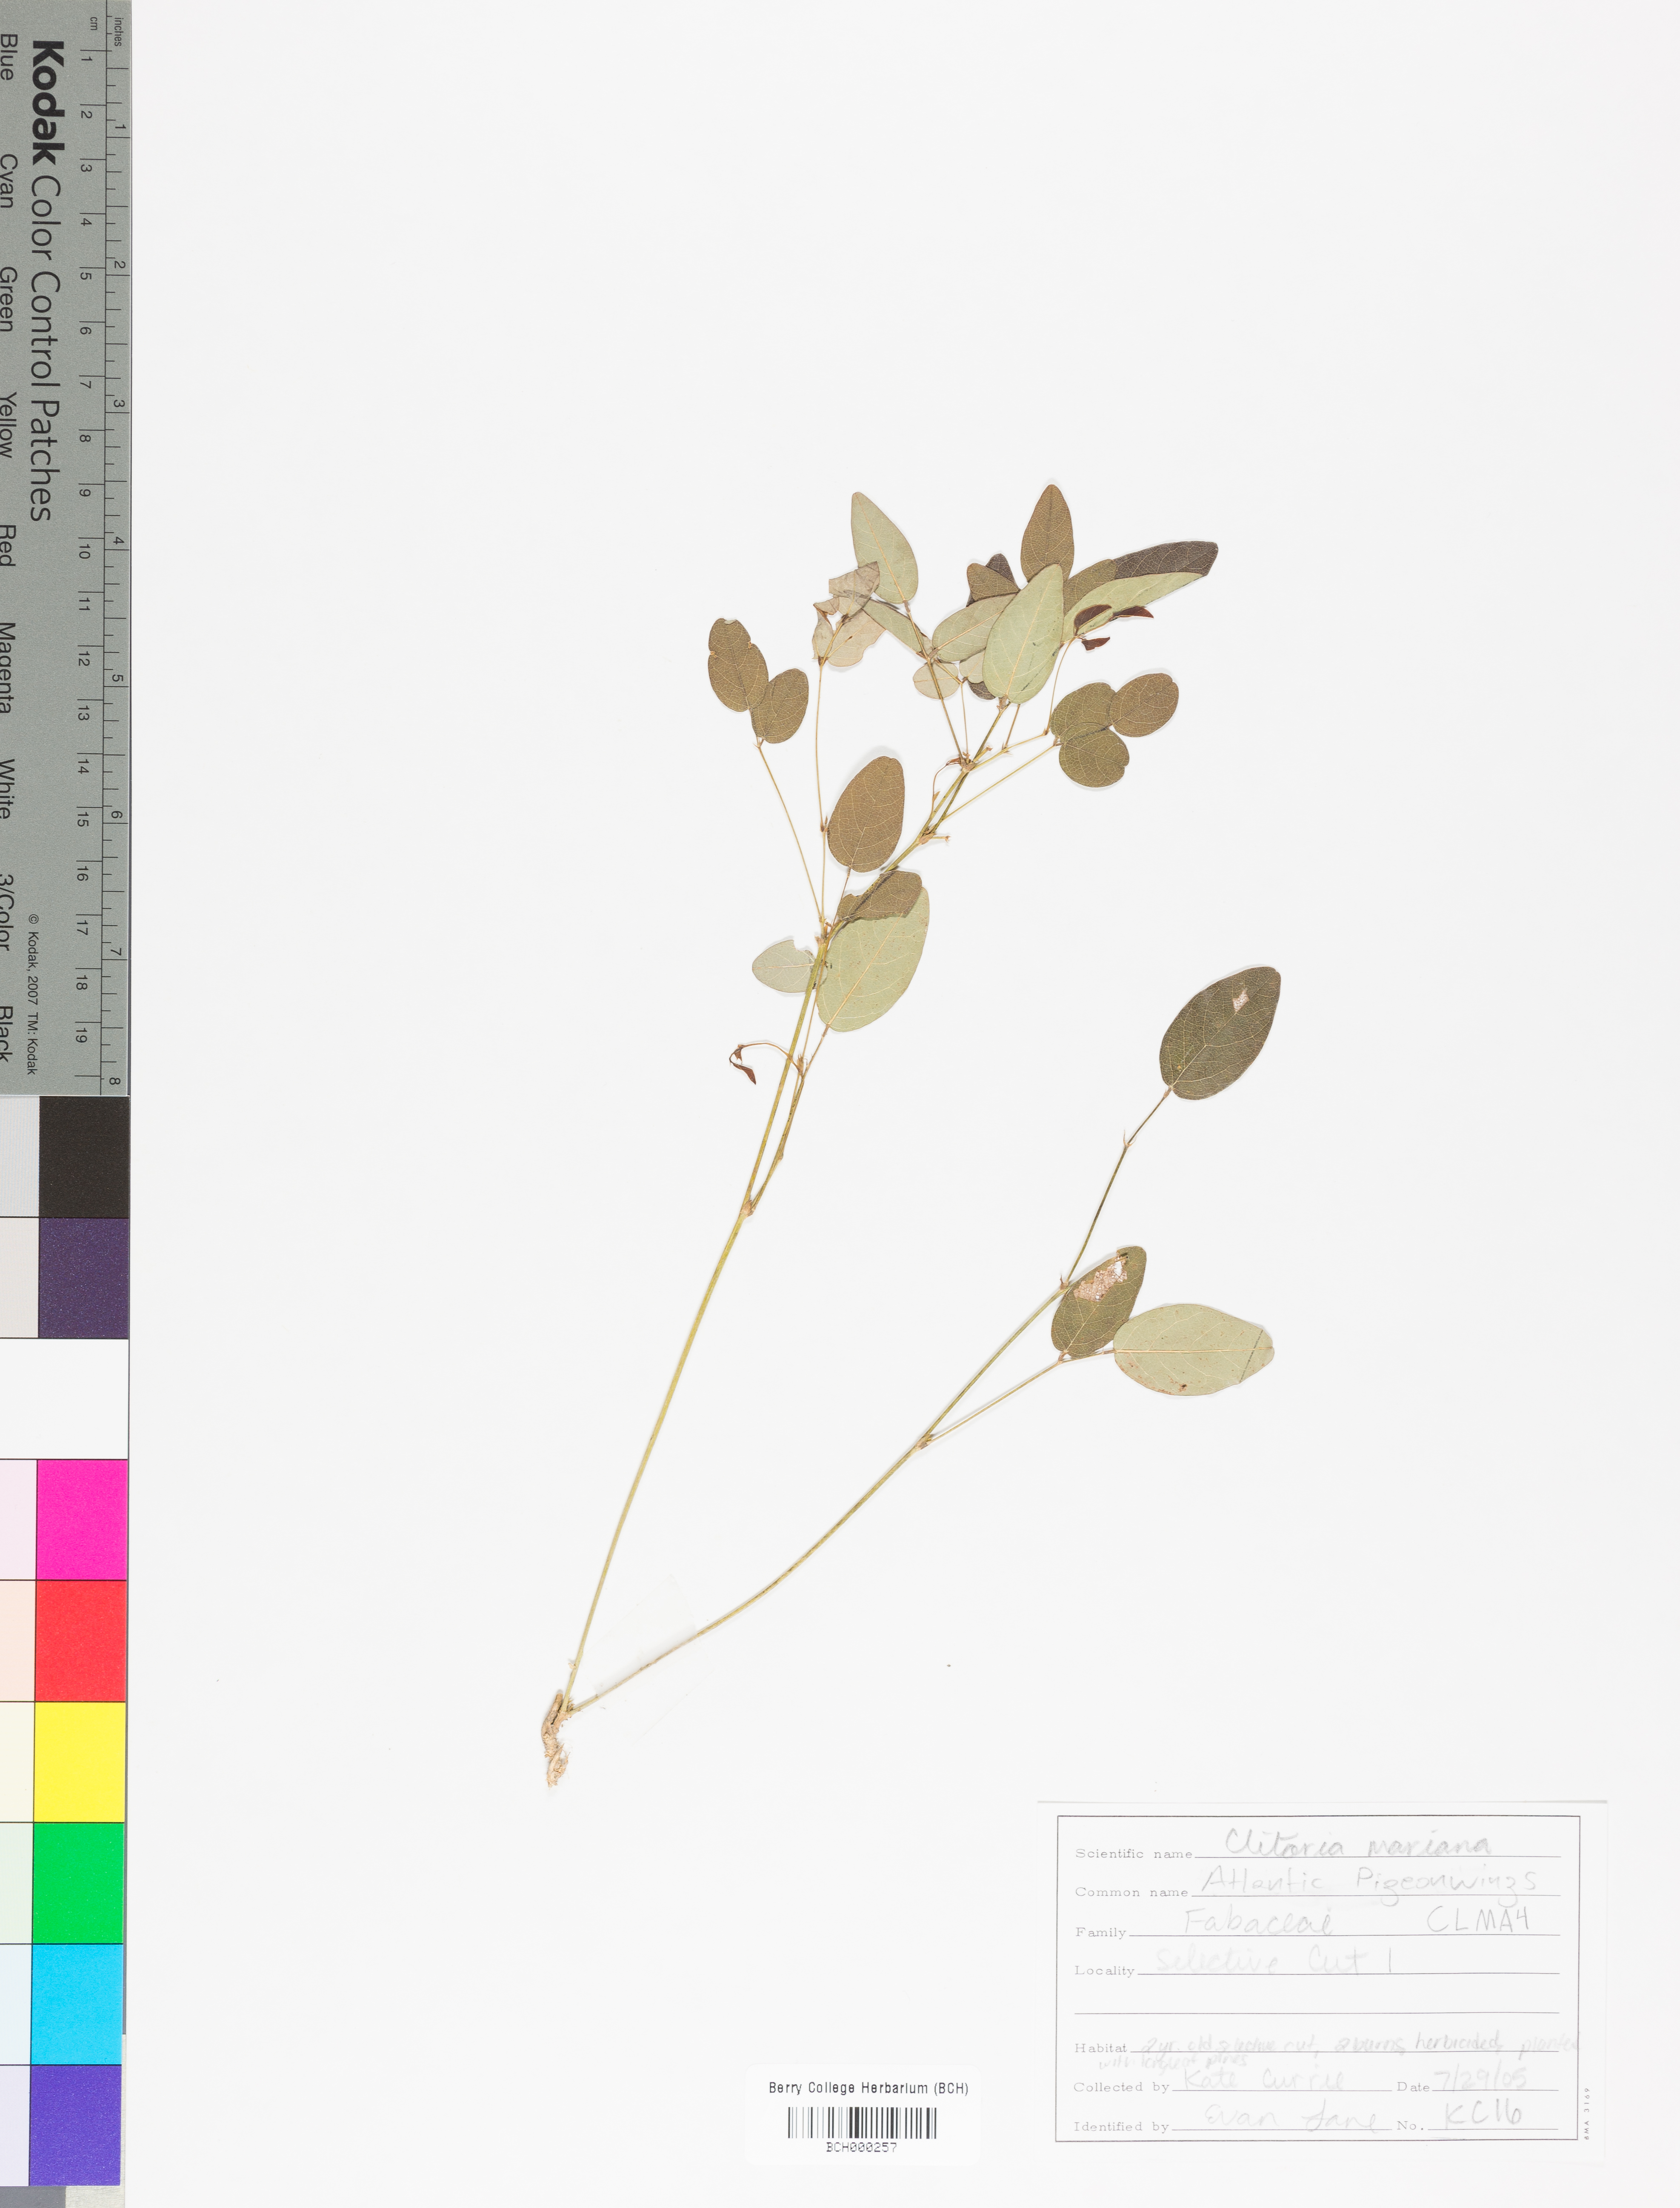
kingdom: Plantae
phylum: Tracheophyta
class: Magnoliopsida
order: Fabales
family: Fabaceae
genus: Clitoria
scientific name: Clitoria mariana
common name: Butterfly-pea
